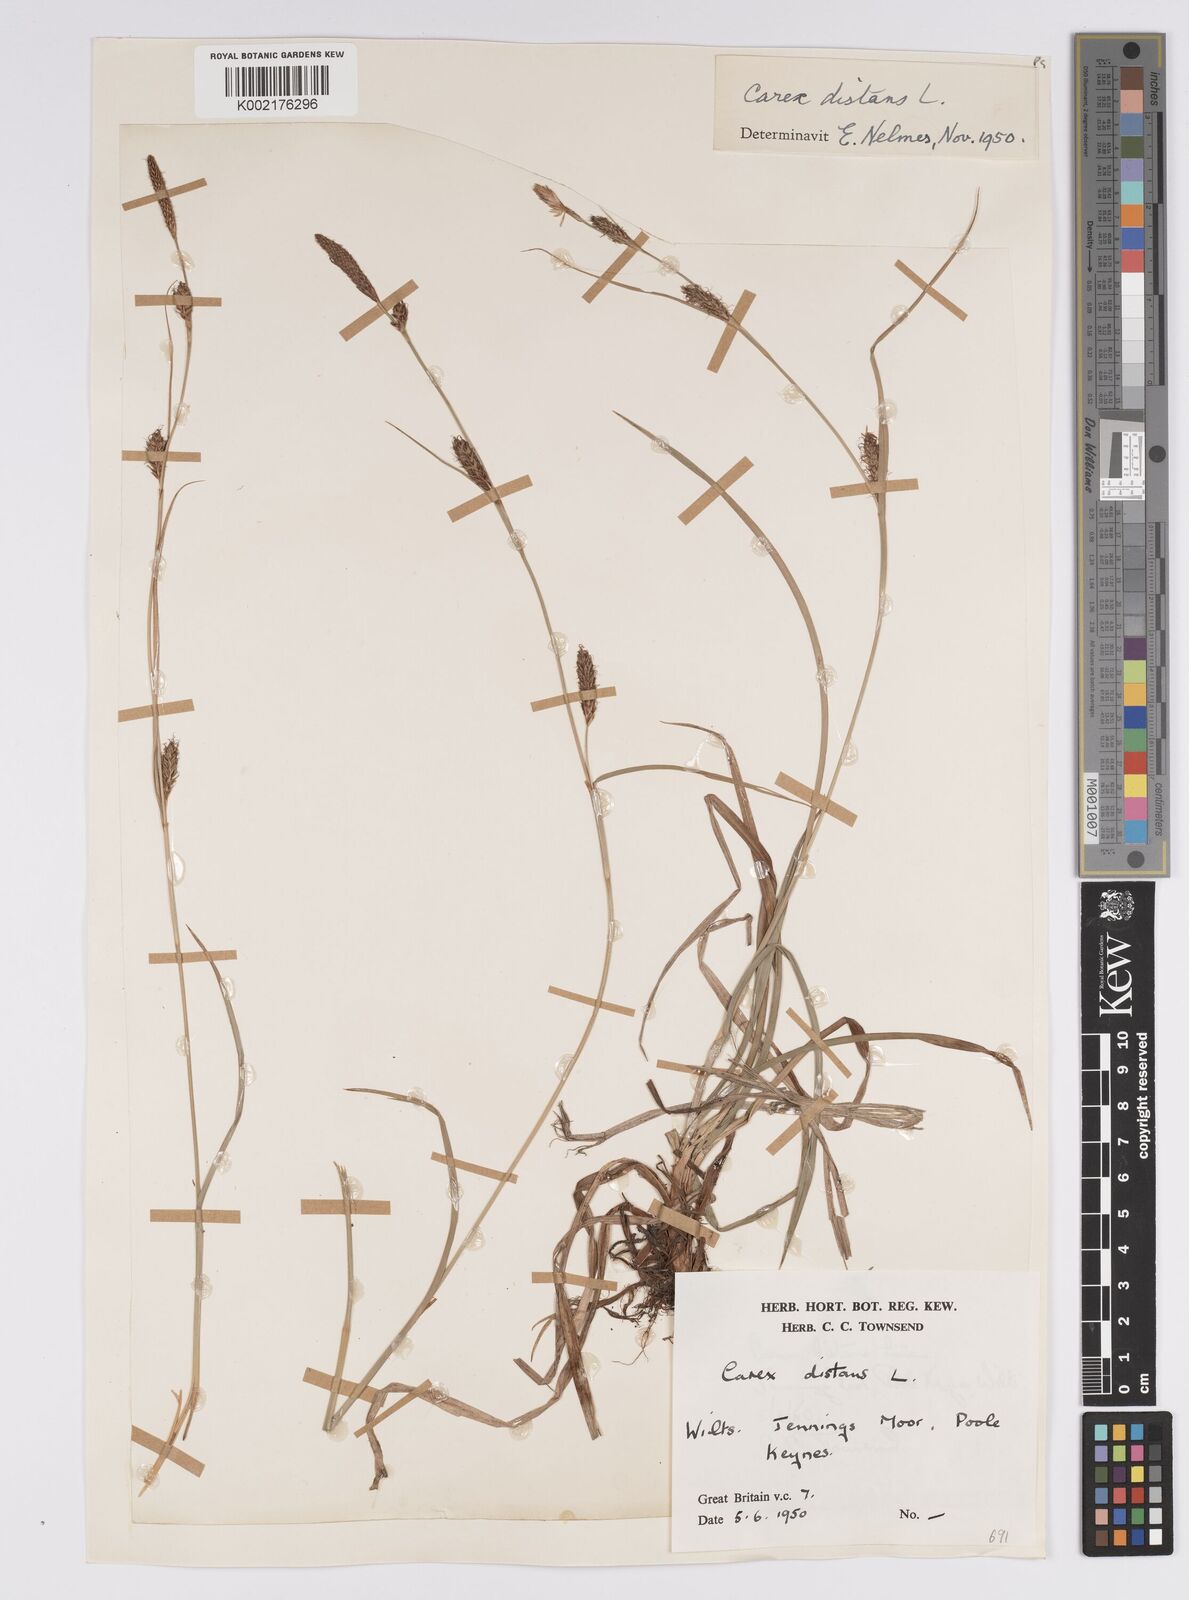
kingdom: Plantae
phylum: Tracheophyta
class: Liliopsida
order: Poales
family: Cyperaceae
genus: Carex
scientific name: Carex distans
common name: Distant sedge
